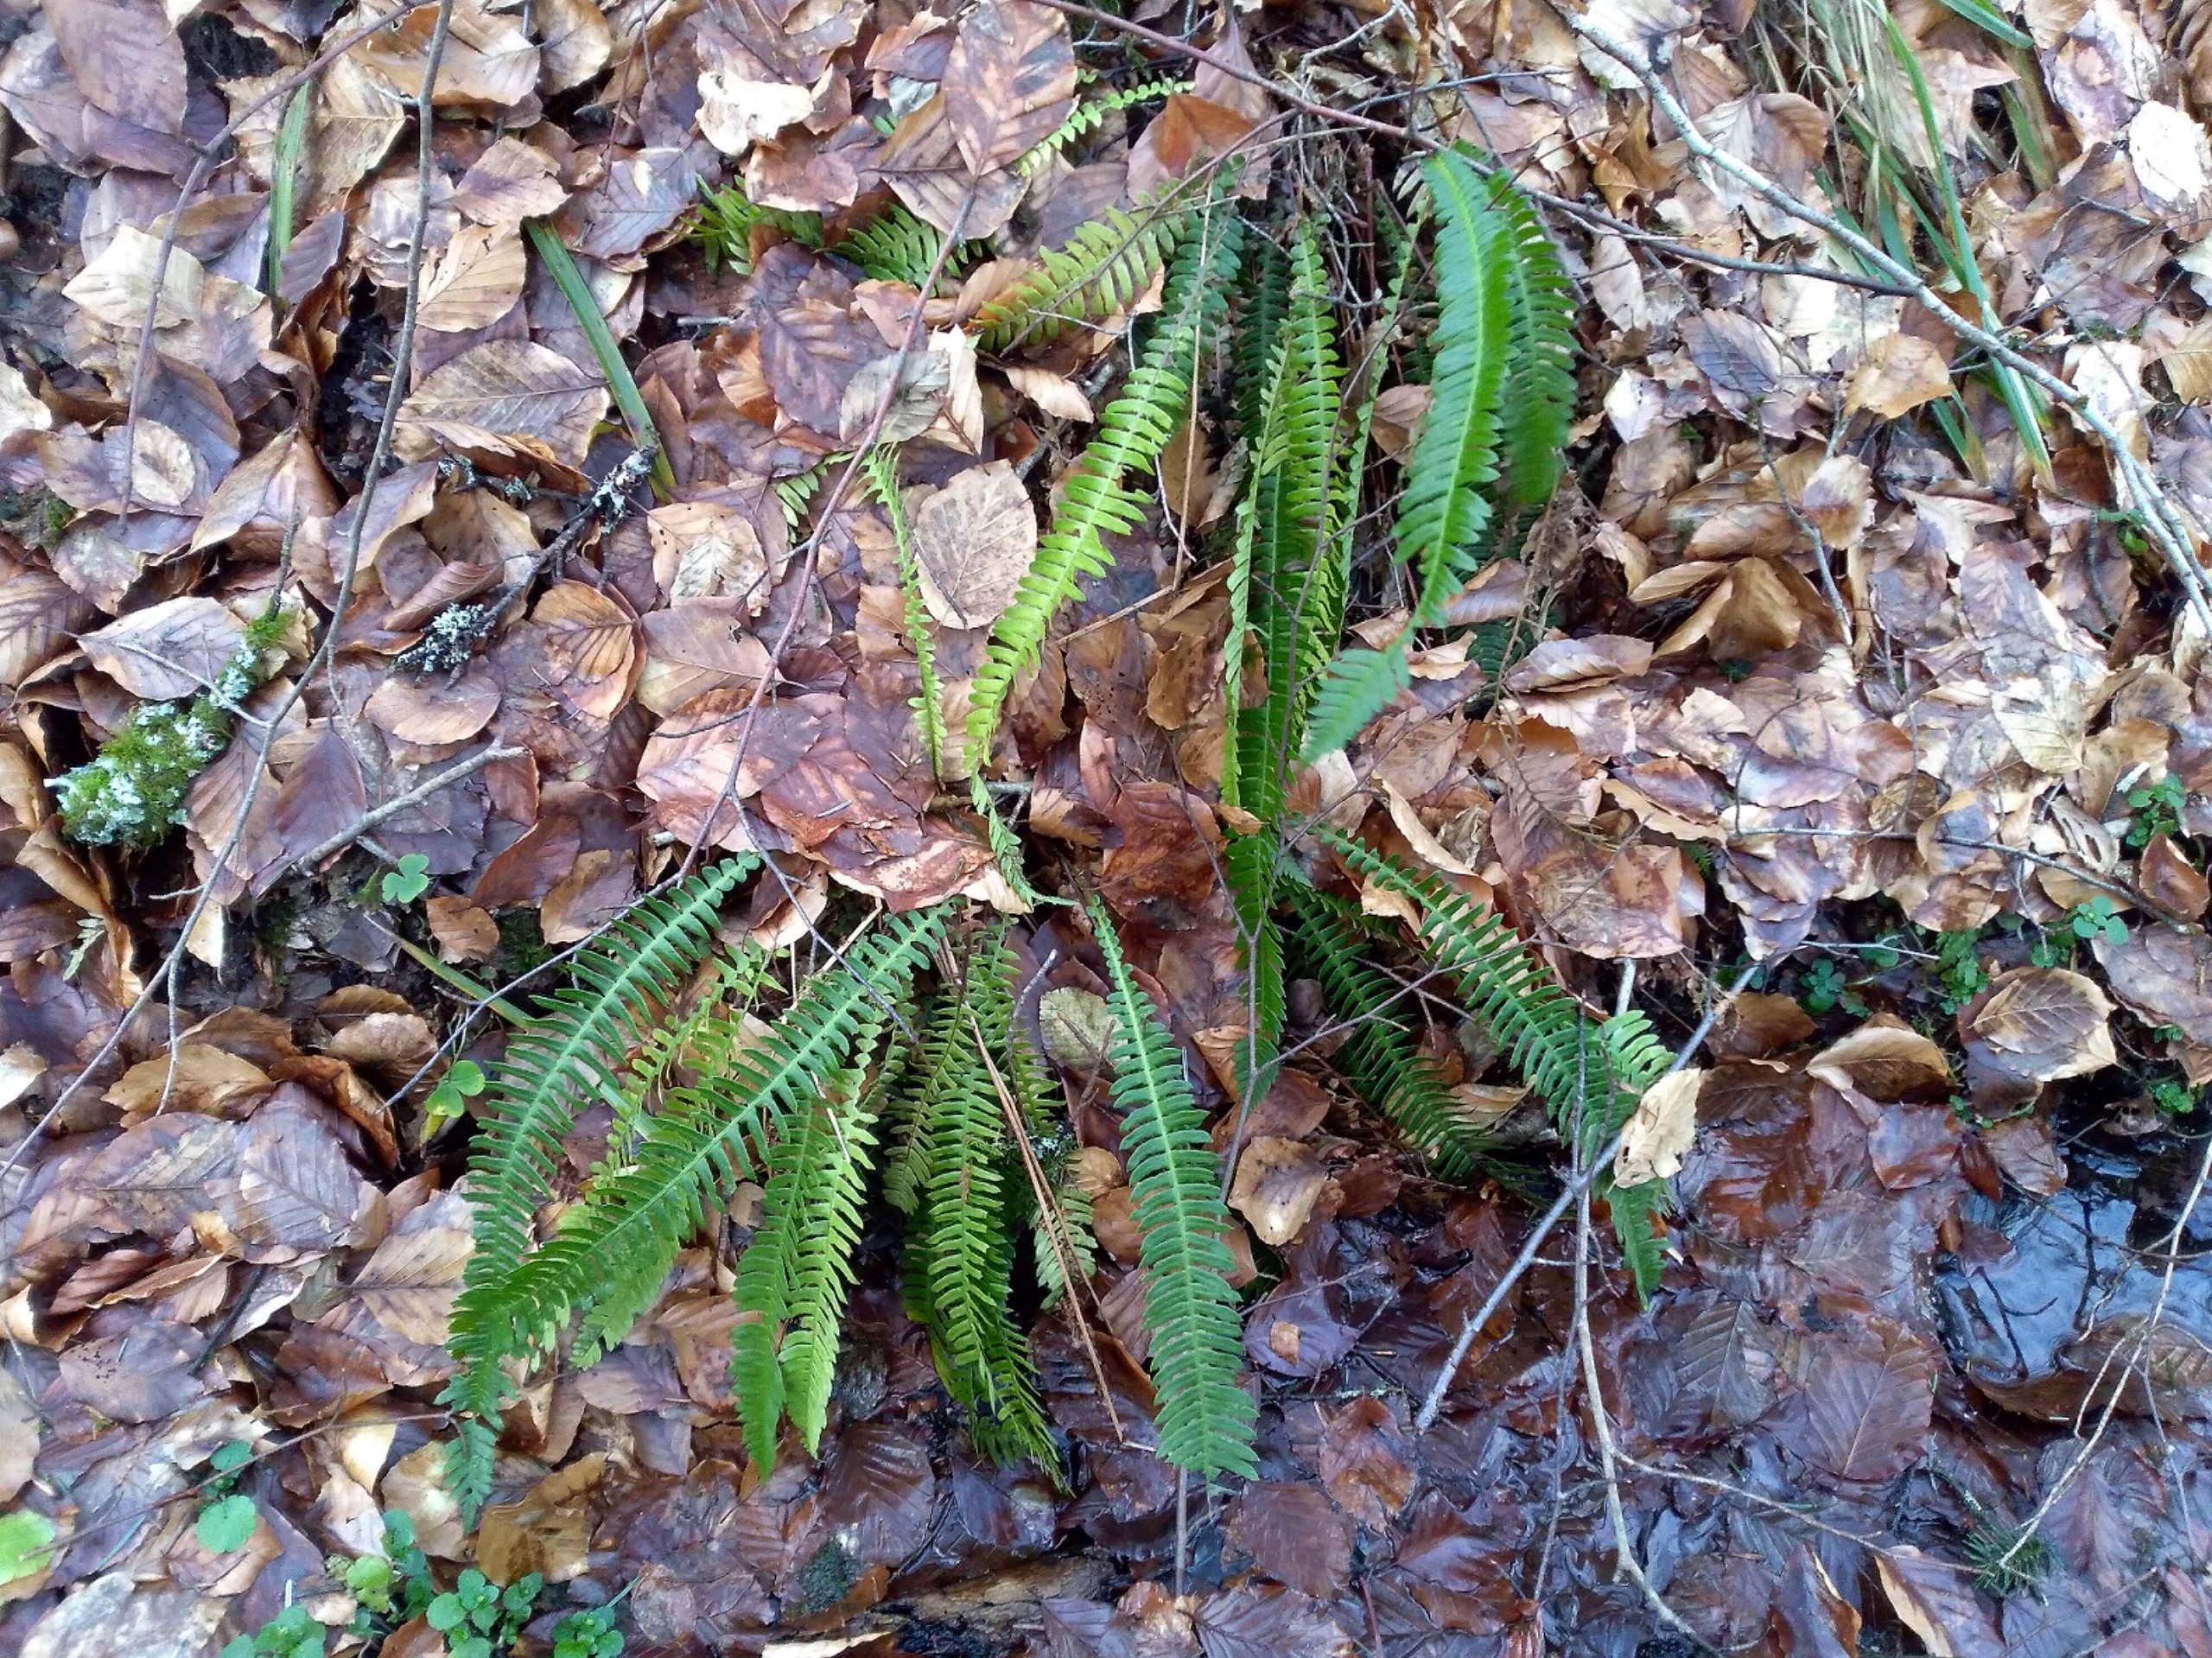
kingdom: Plantae
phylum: Tracheophyta
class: Polypodiopsida
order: Polypodiales
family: Blechnaceae
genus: Struthiopteris
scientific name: Struthiopteris spicant
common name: Kambregne
